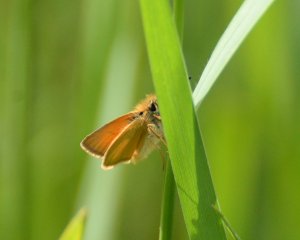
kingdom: Animalia
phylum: Arthropoda
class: Insecta
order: Lepidoptera
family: Hesperiidae
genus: Thymelicus
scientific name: Thymelicus lineola
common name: European Skipper
